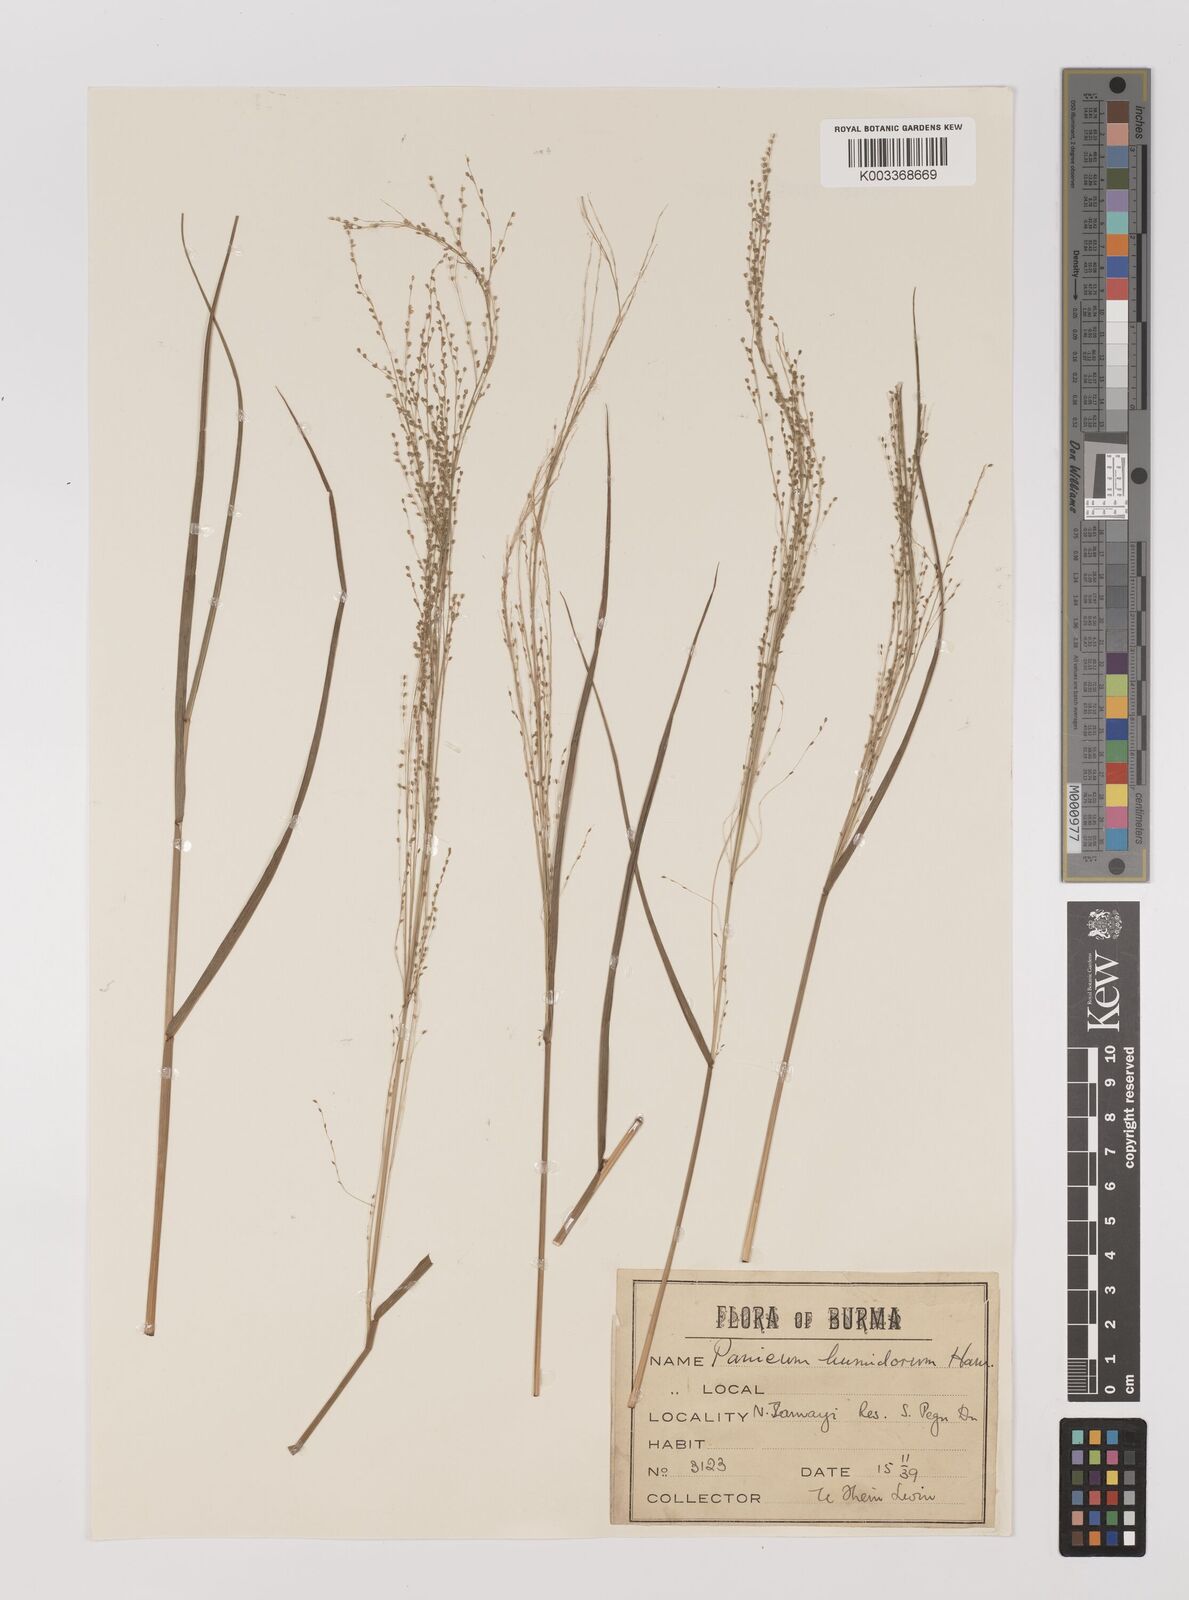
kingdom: Plantae
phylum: Tracheophyta
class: Liliopsida
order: Poales
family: Poaceae
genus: Panicum
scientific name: Panicum humidorum
